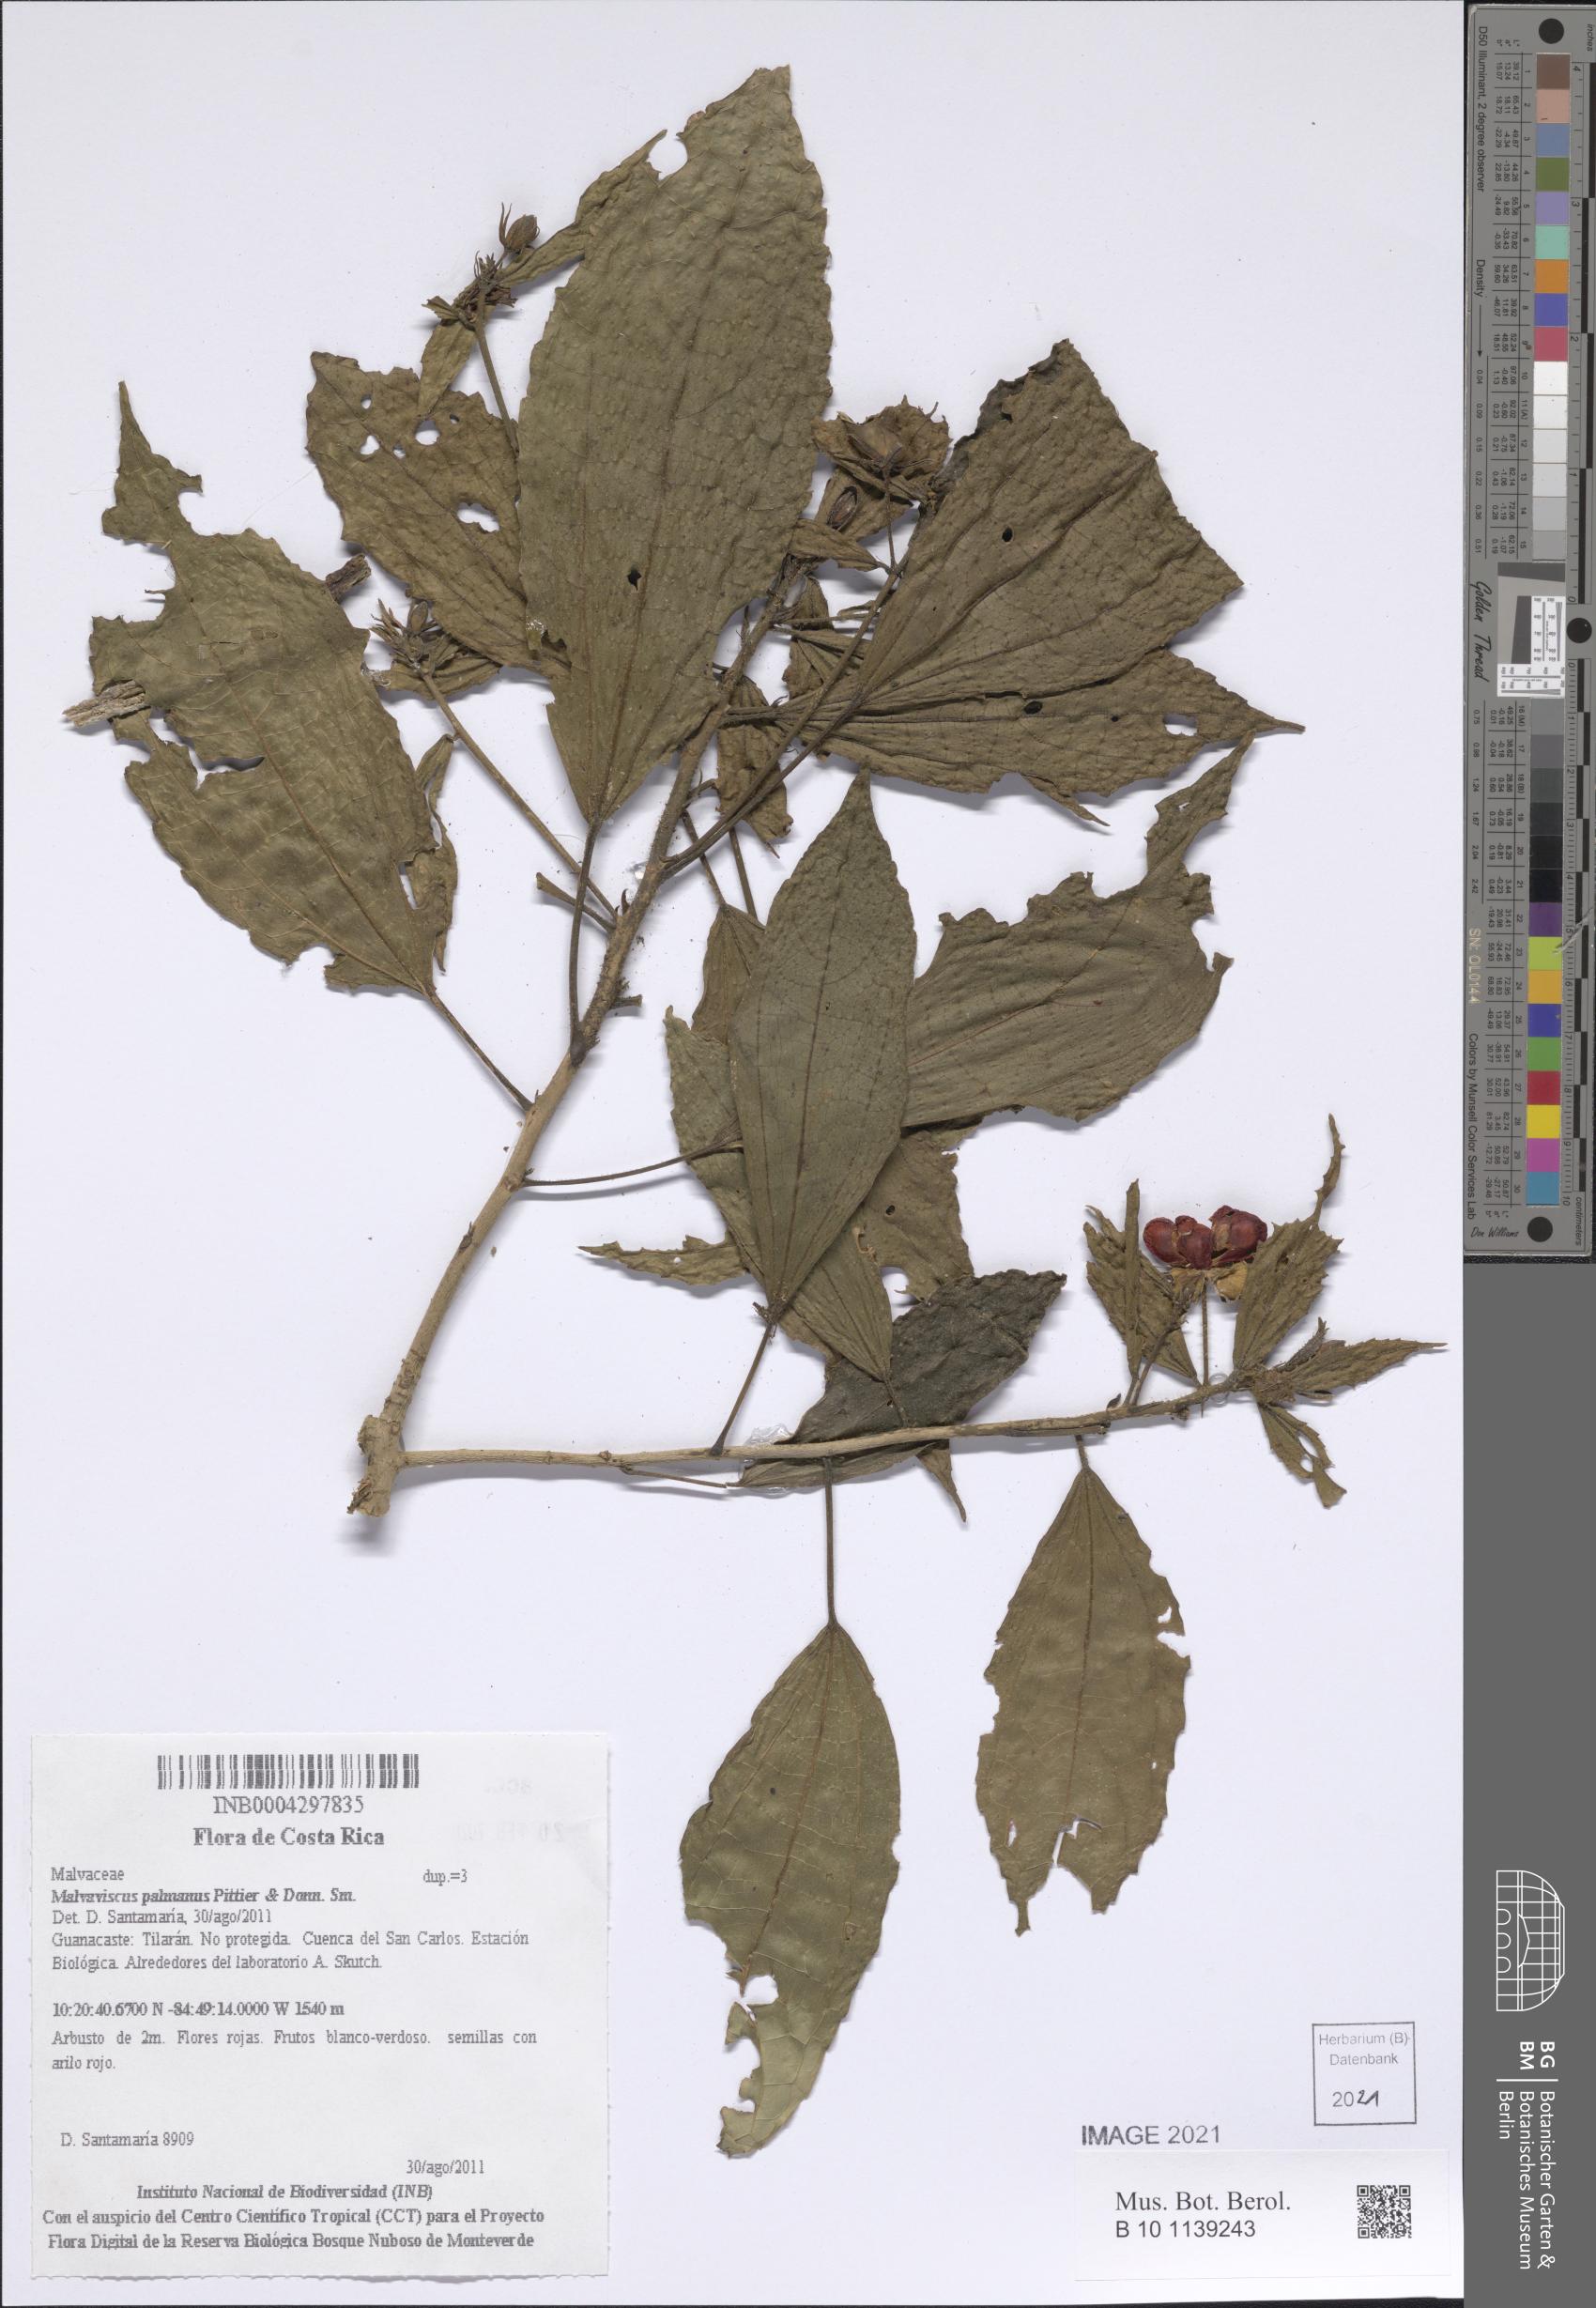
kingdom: Plantae
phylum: Tracheophyta
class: Magnoliopsida
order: Malvales
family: Malvaceae
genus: Malvaviscus
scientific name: Malvaviscus palmanus
